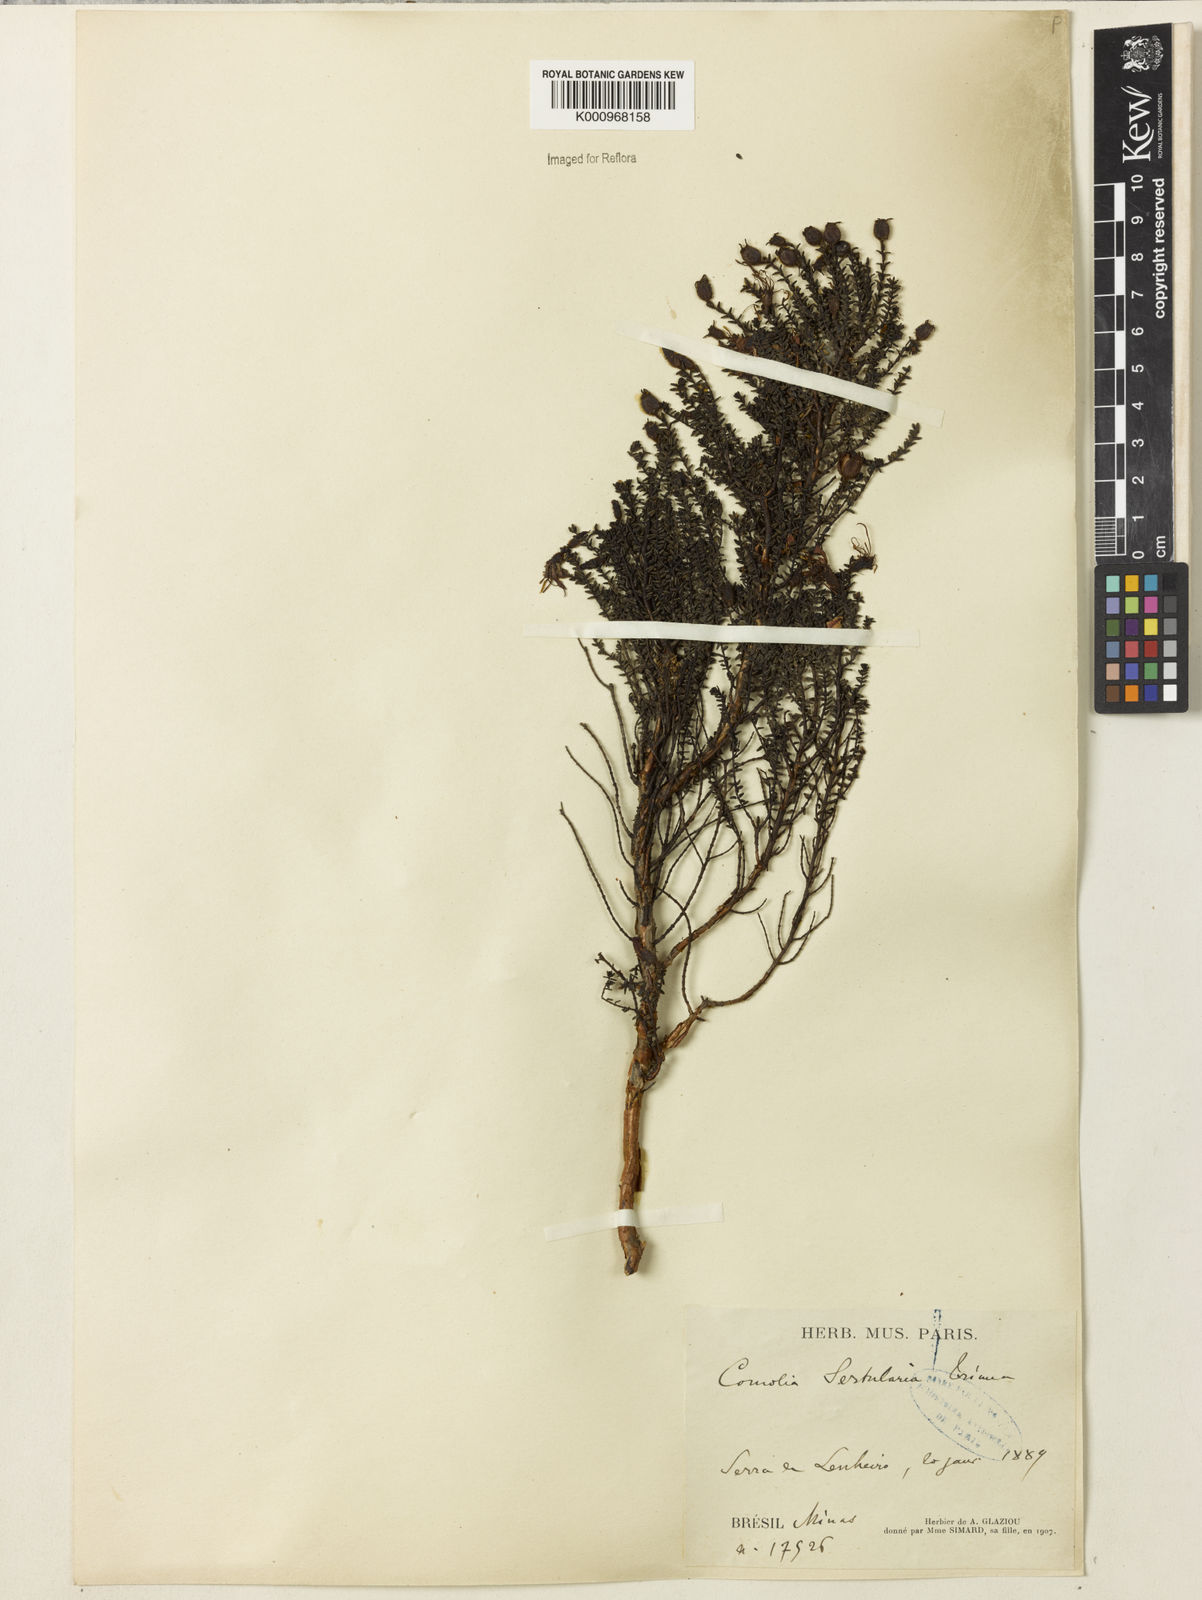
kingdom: Plantae
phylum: Tracheophyta
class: Magnoliopsida
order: Myrtales
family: Melastomataceae
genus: Fritzschia
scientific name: Fritzschia sertularia
